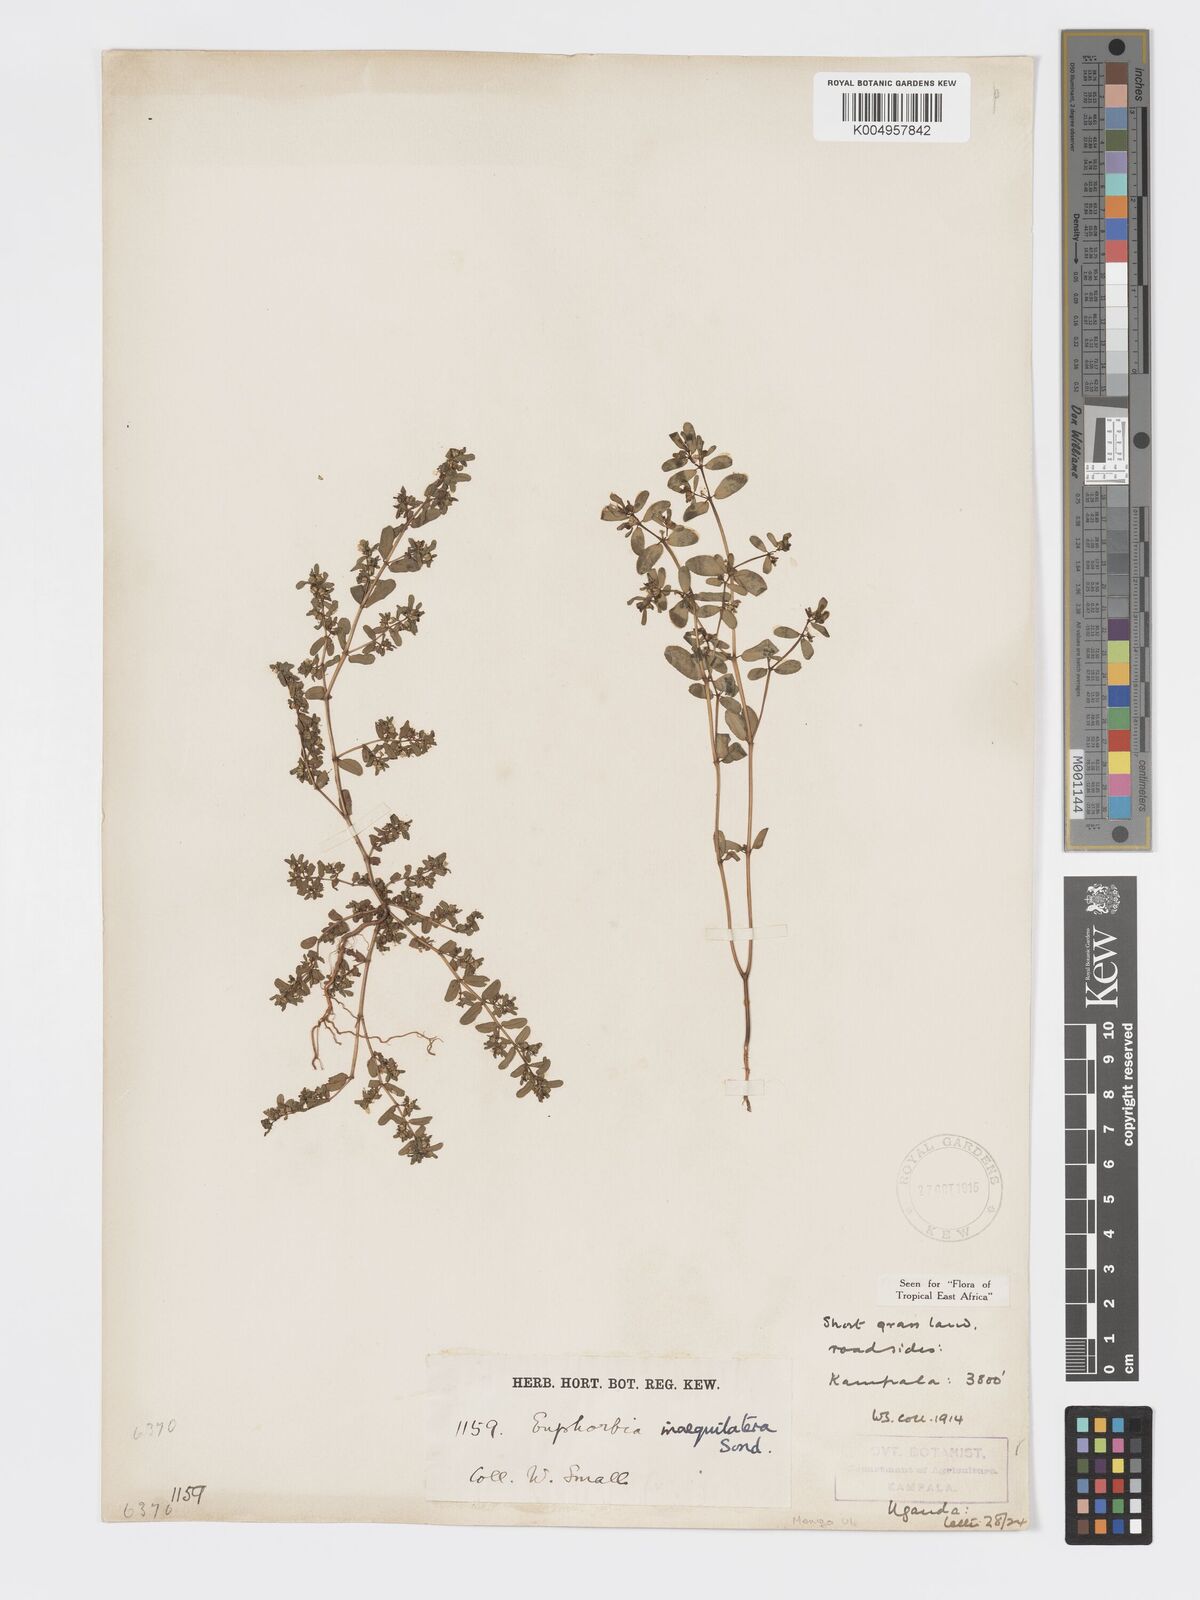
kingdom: Plantae
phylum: Tracheophyta
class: Magnoliopsida
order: Malpighiales
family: Euphorbiaceae
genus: Euphorbia
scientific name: Euphorbia inaequilatera
